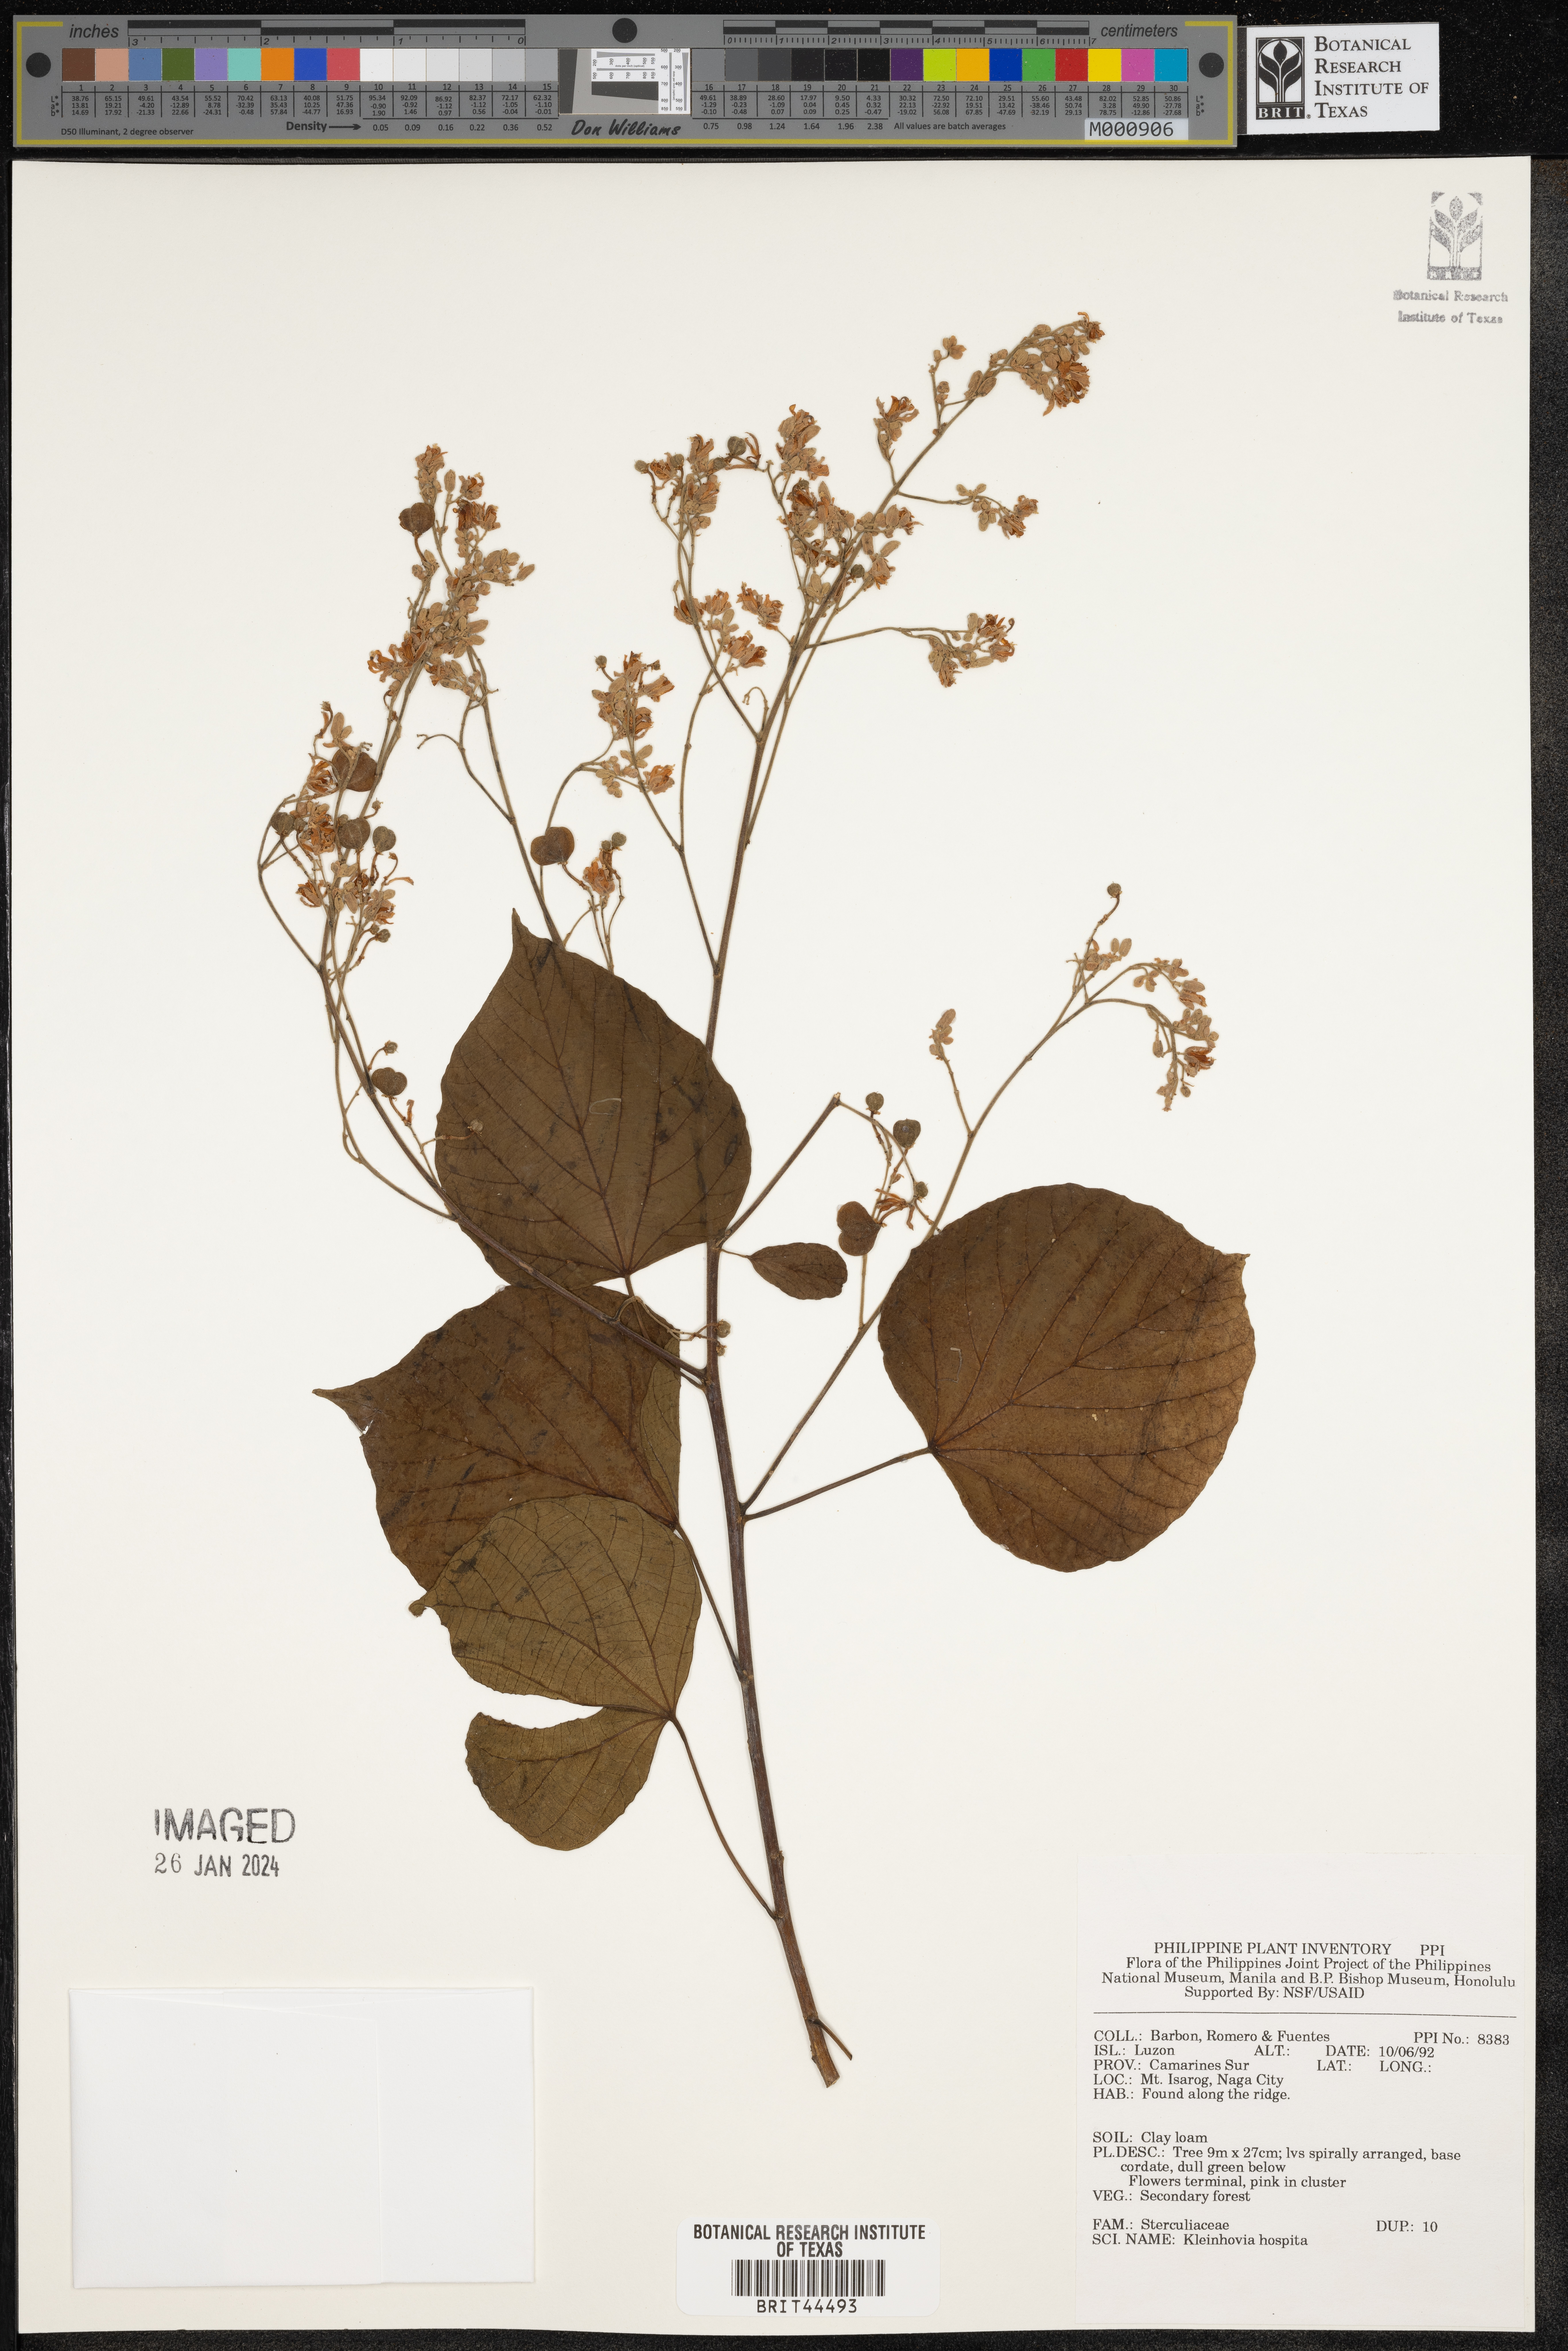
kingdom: Plantae
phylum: Tracheophyta
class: Magnoliopsida
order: Malvales
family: Malvaceae
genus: Kleinhovia
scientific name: Kleinhovia hospita
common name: Guest-tree
